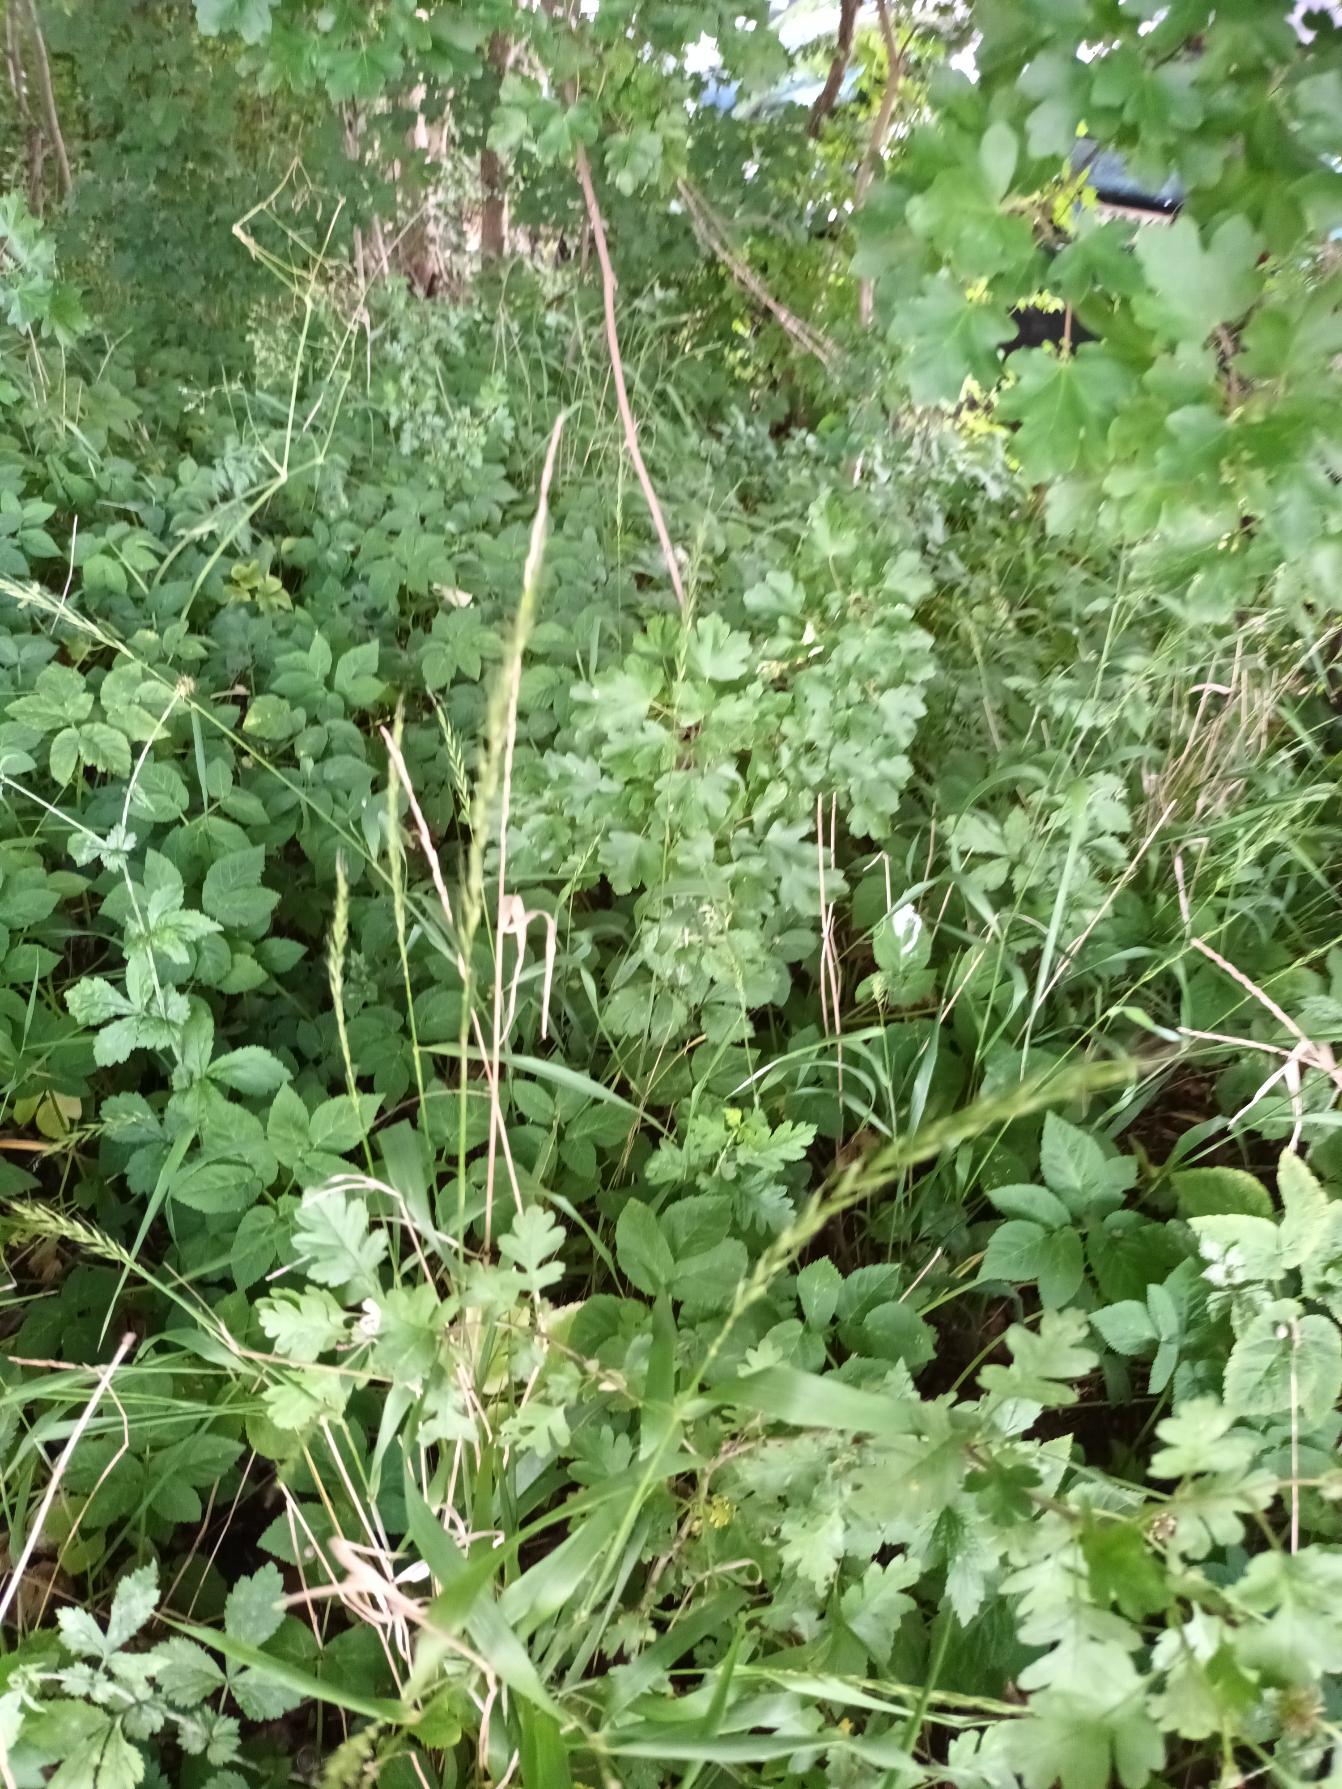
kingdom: Plantae
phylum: Tracheophyta
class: Liliopsida
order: Poales
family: Poaceae
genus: Elymus
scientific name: Elymus caninus
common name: Hundekvik
